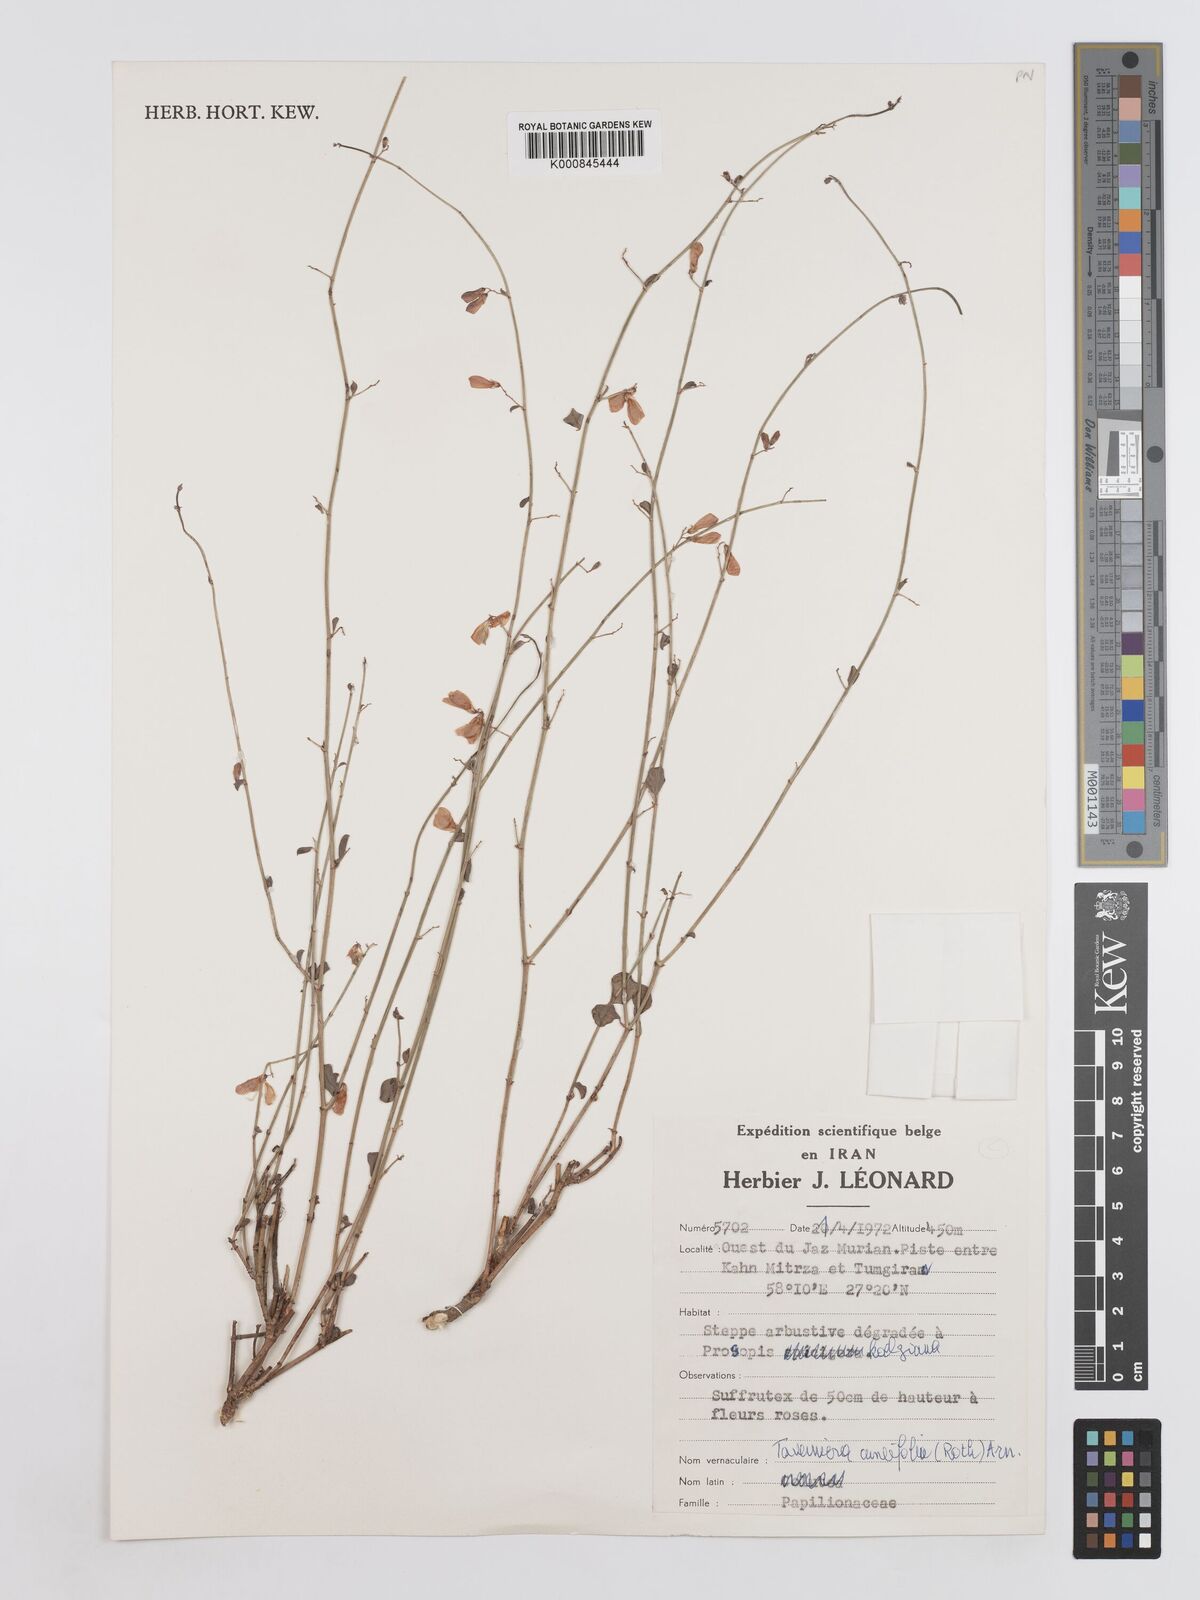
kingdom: Plantae
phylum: Tracheophyta
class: Magnoliopsida
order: Fabales
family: Fabaceae
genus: Taverniera
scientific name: Taverniera
